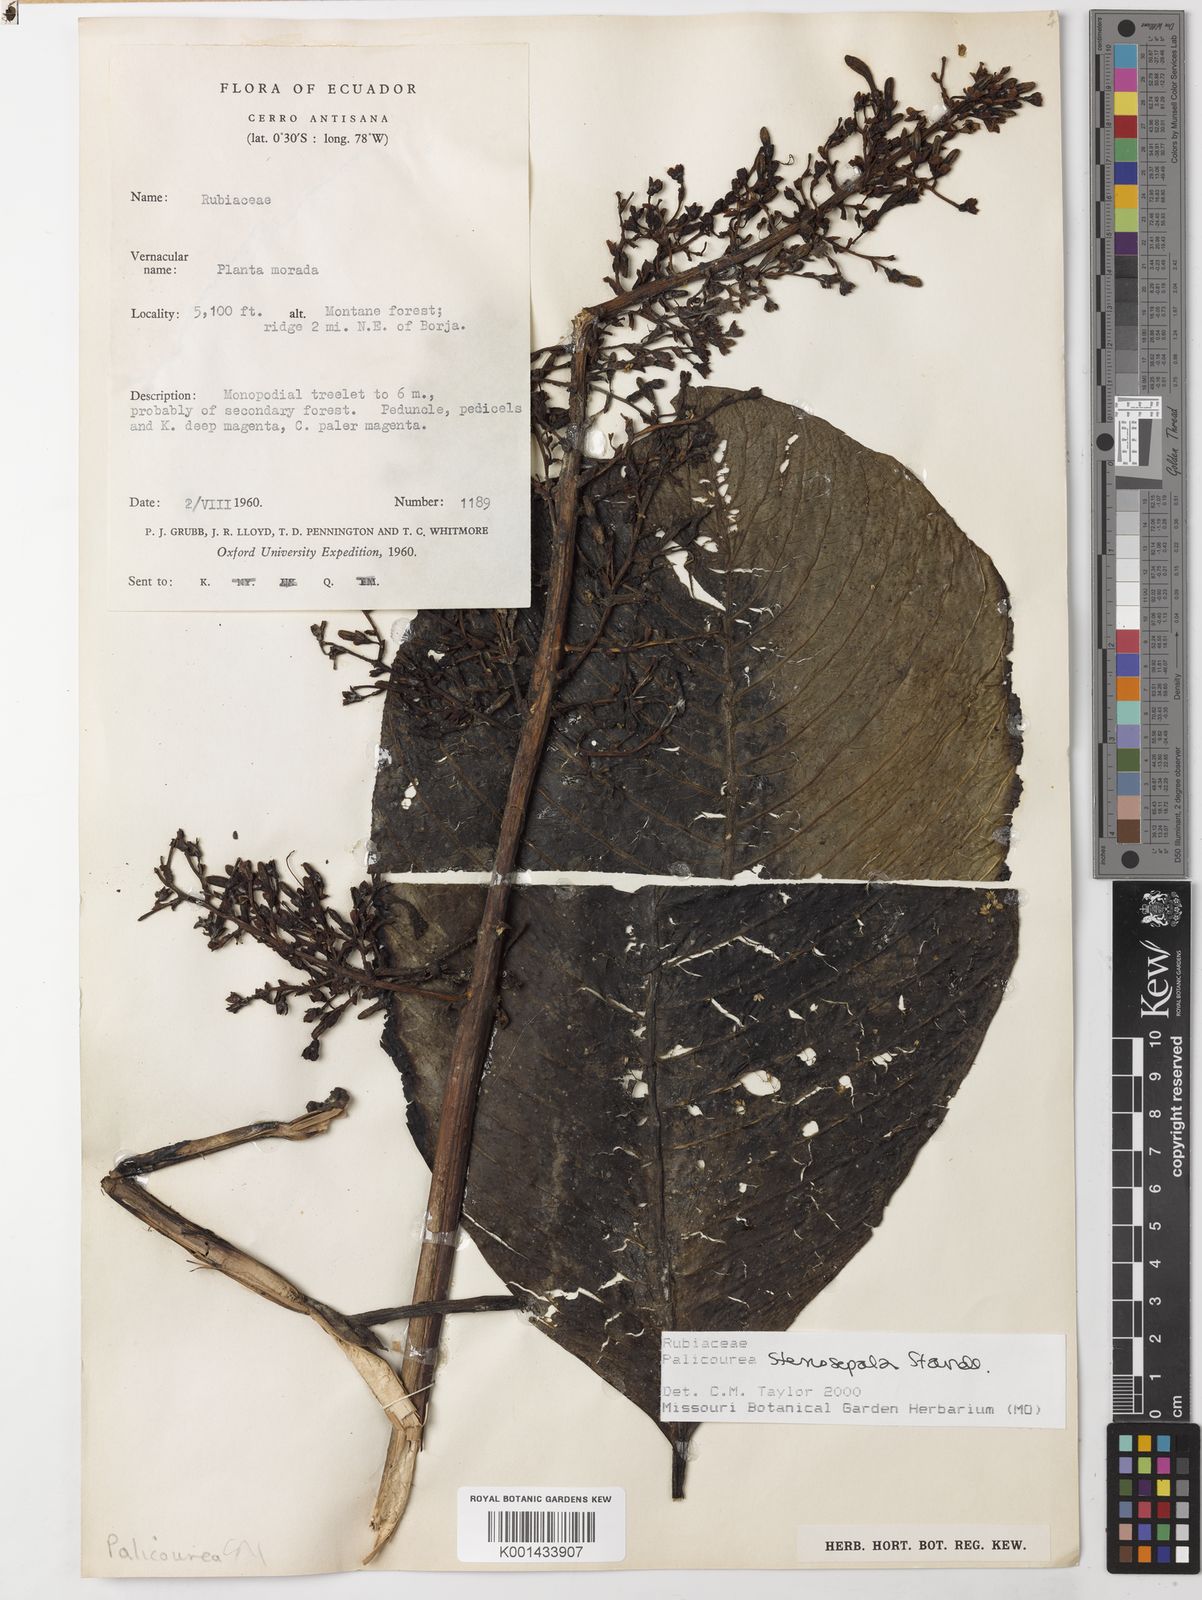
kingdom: Plantae
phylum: Tracheophyta
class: Magnoliopsida
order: Gentianales
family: Rubiaceae
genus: Palicourea
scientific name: Palicourea fastigiata
